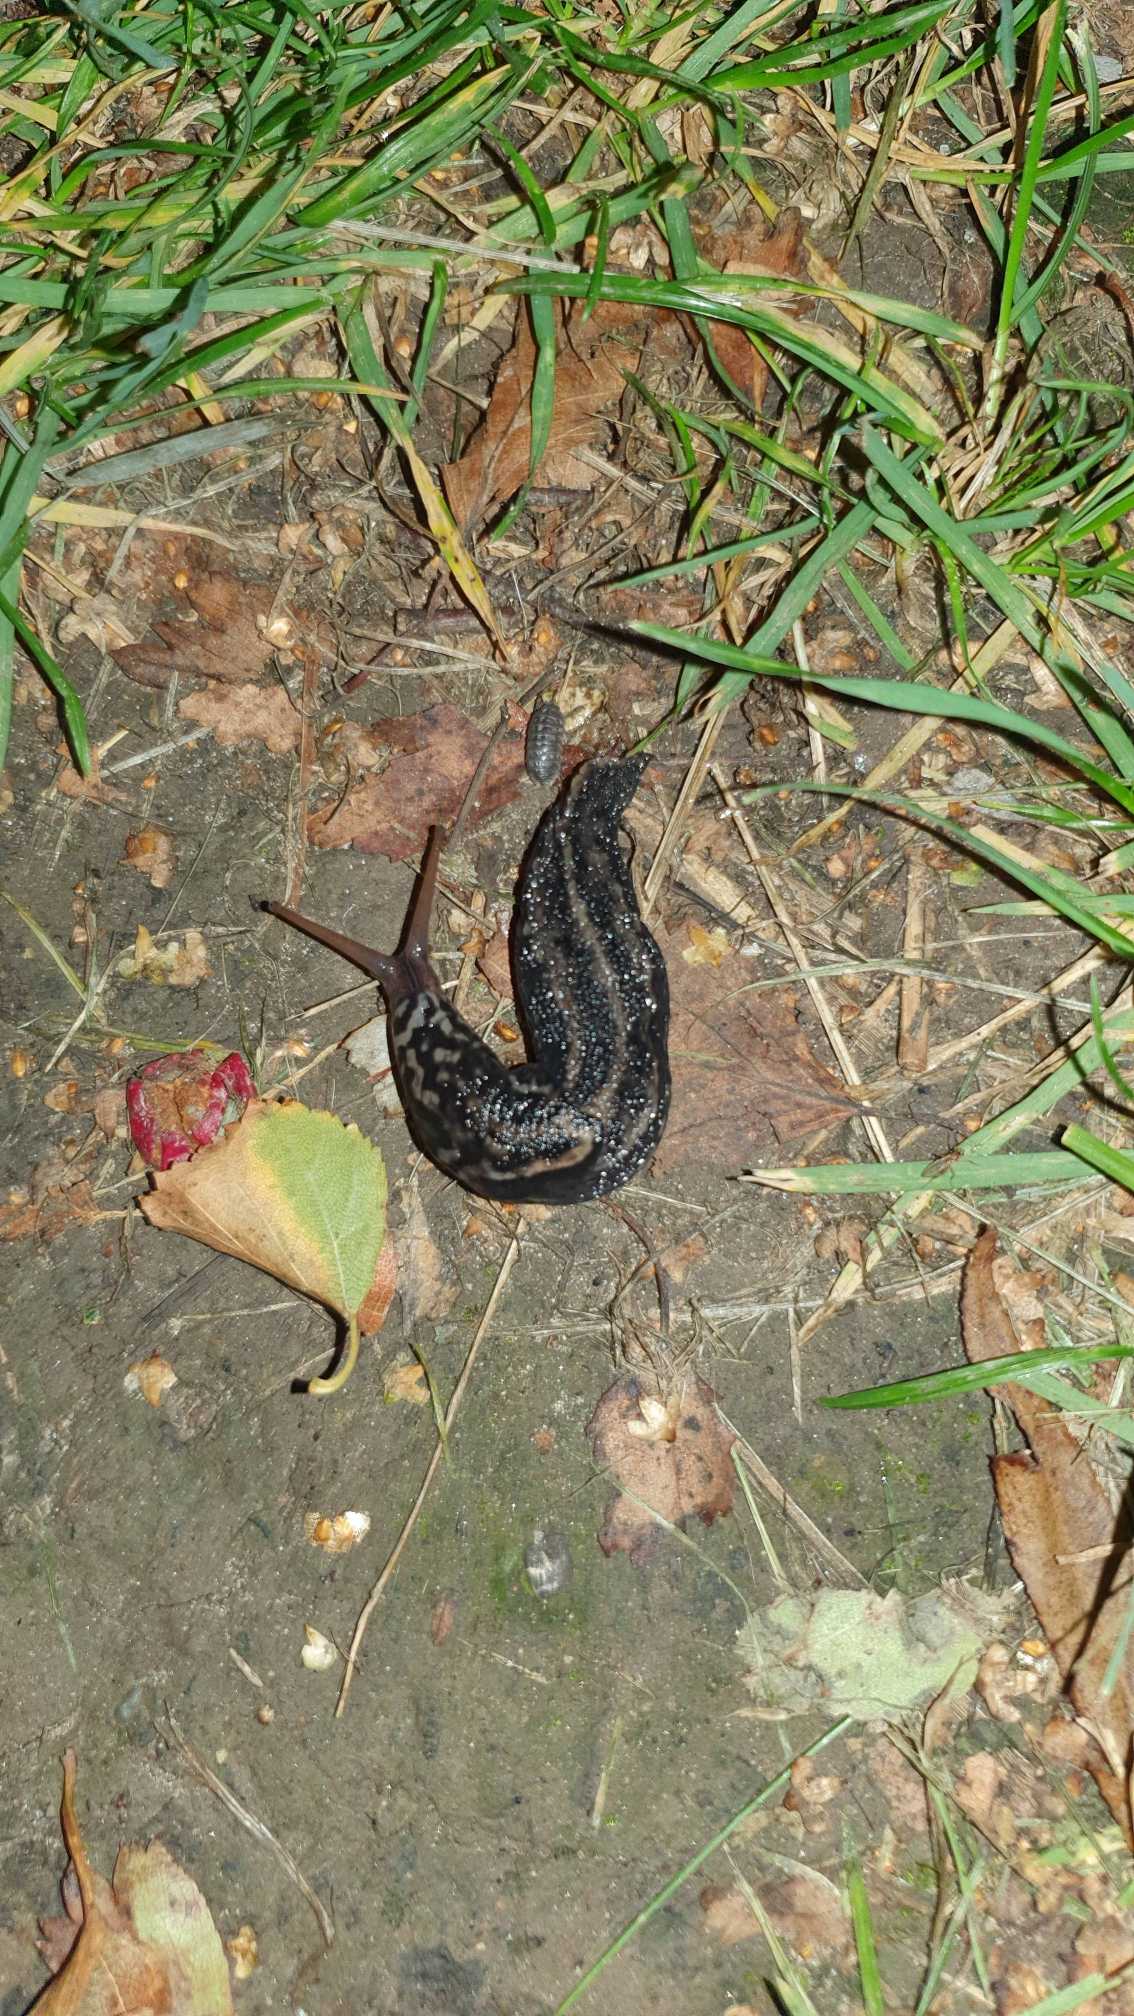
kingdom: Animalia
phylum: Mollusca
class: Gastropoda
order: Stylommatophora
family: Limacidae
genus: Limax
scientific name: Limax maximus
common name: Pantersnegl
